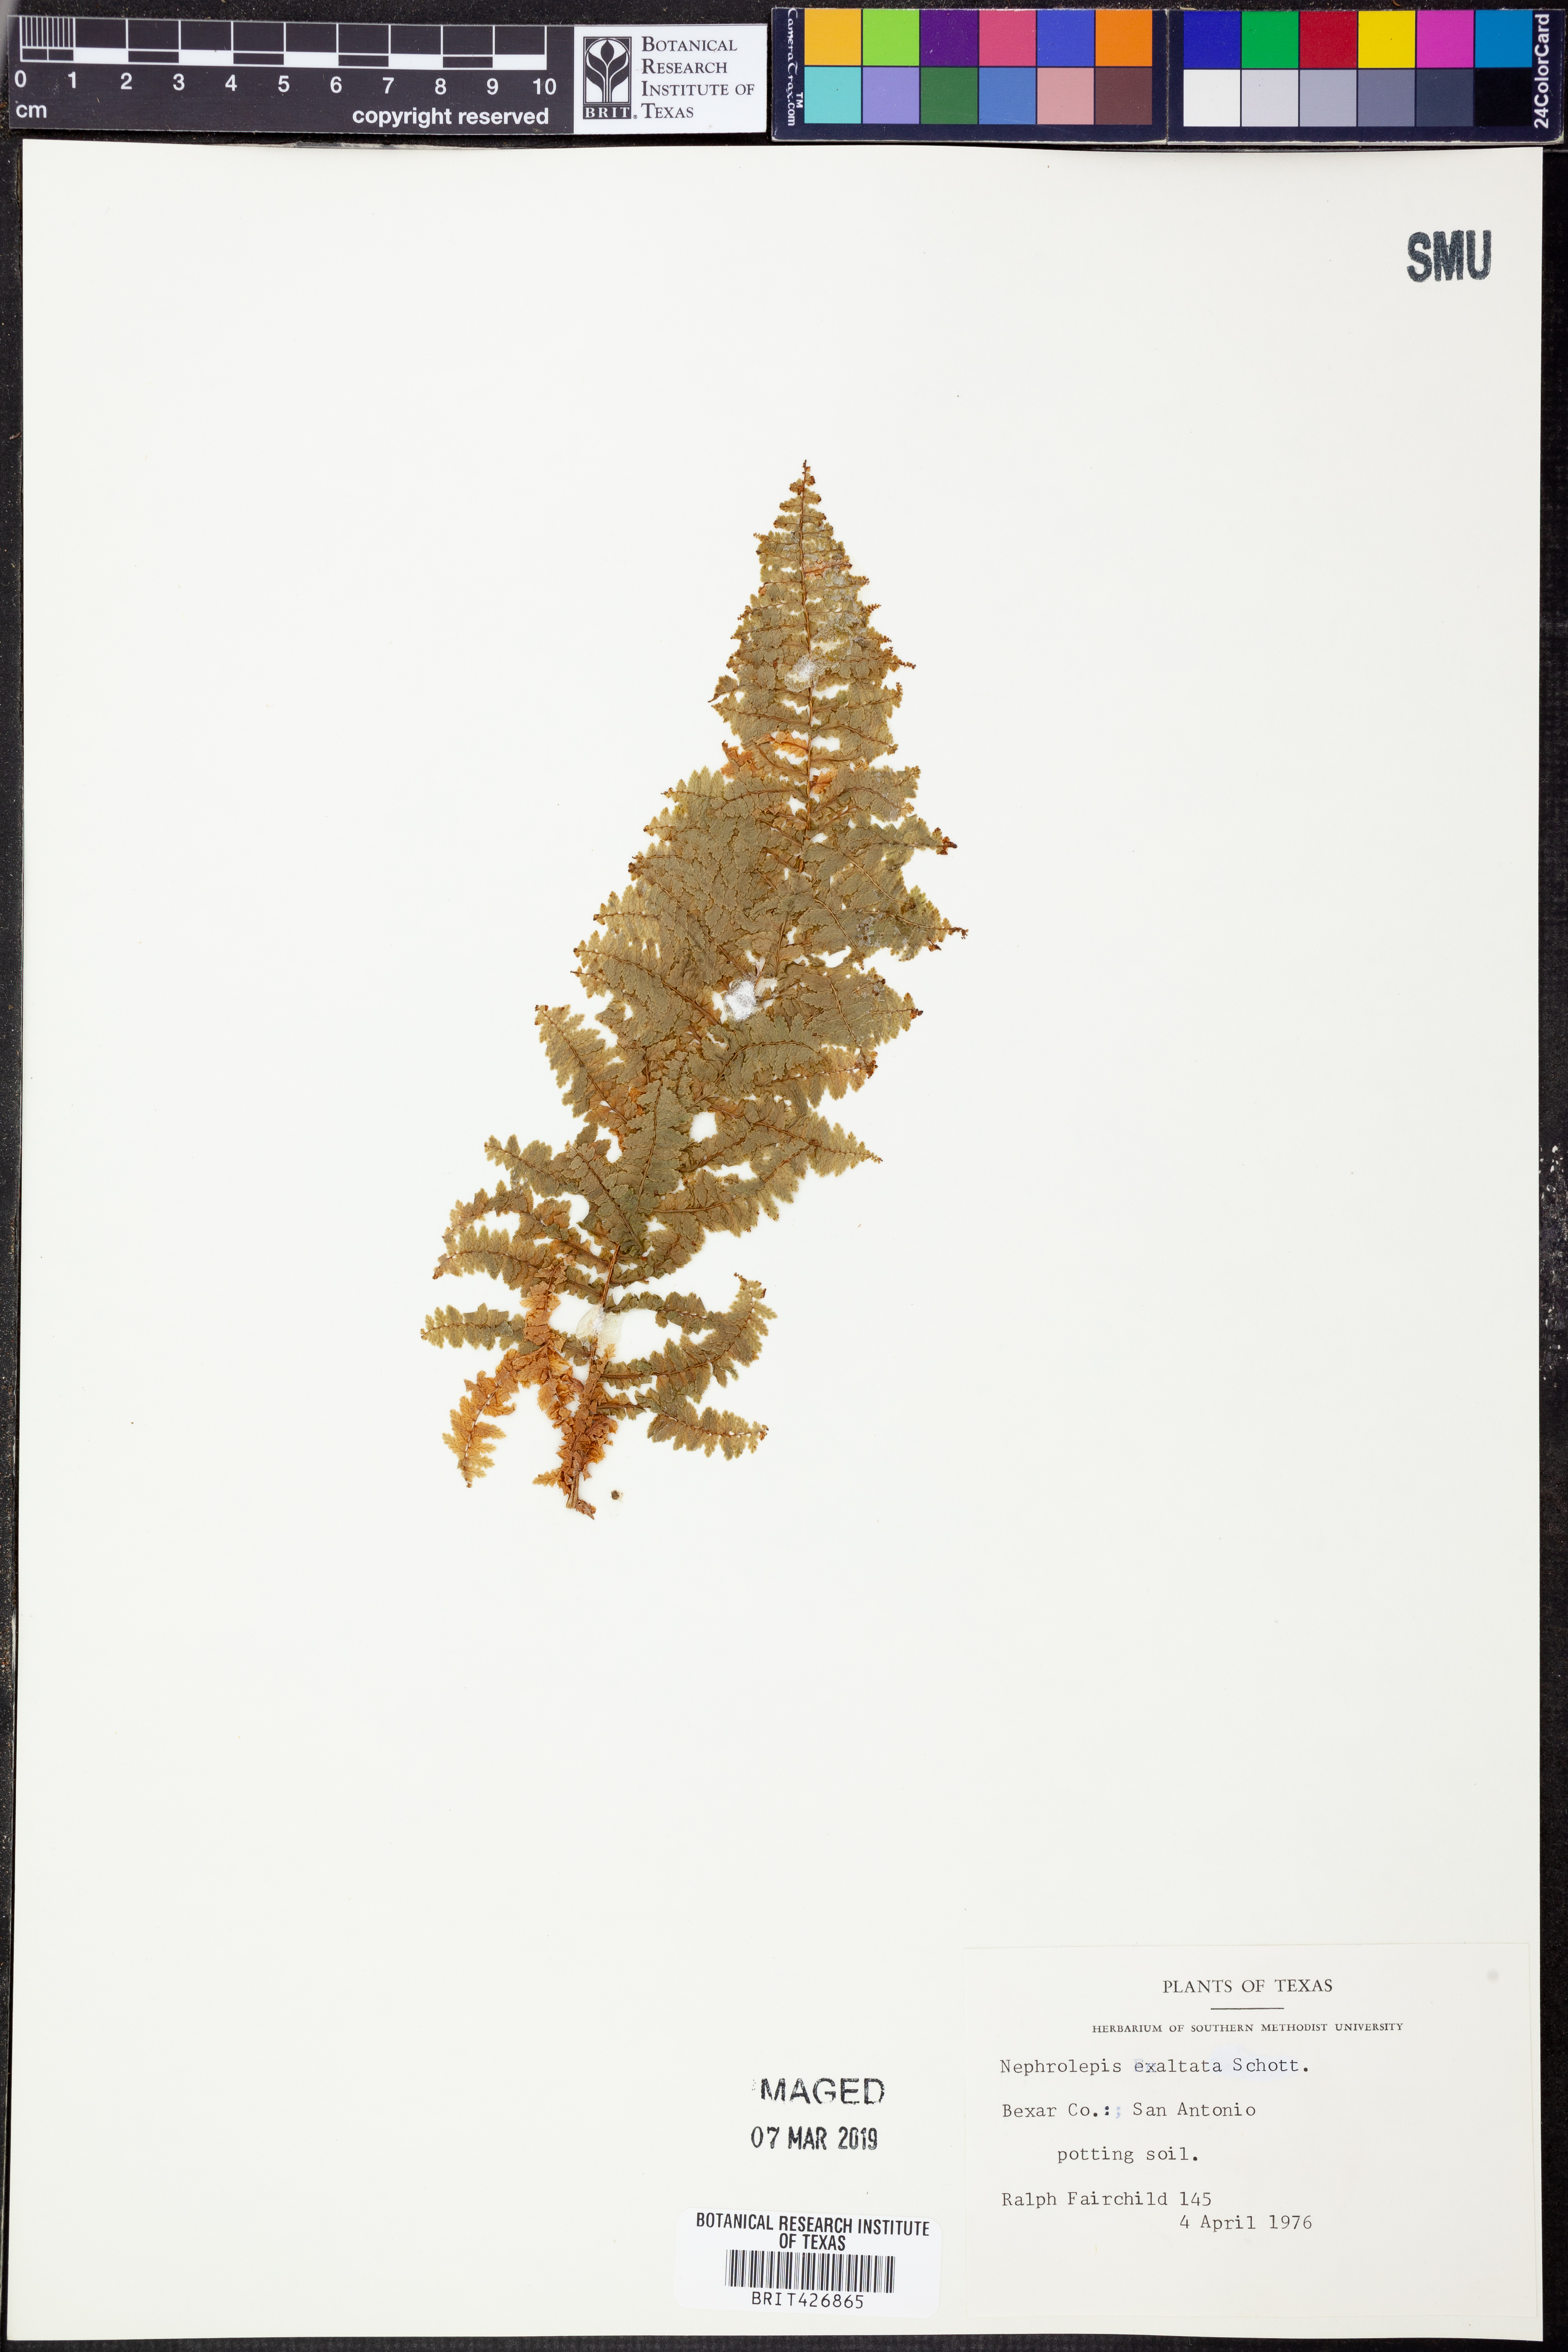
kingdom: Plantae
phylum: Tracheophyta
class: Polypodiopsida
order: Polypodiales
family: Nephrolepidaceae
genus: Nephrolepis
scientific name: Nephrolepis exaltata
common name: Sword fern
